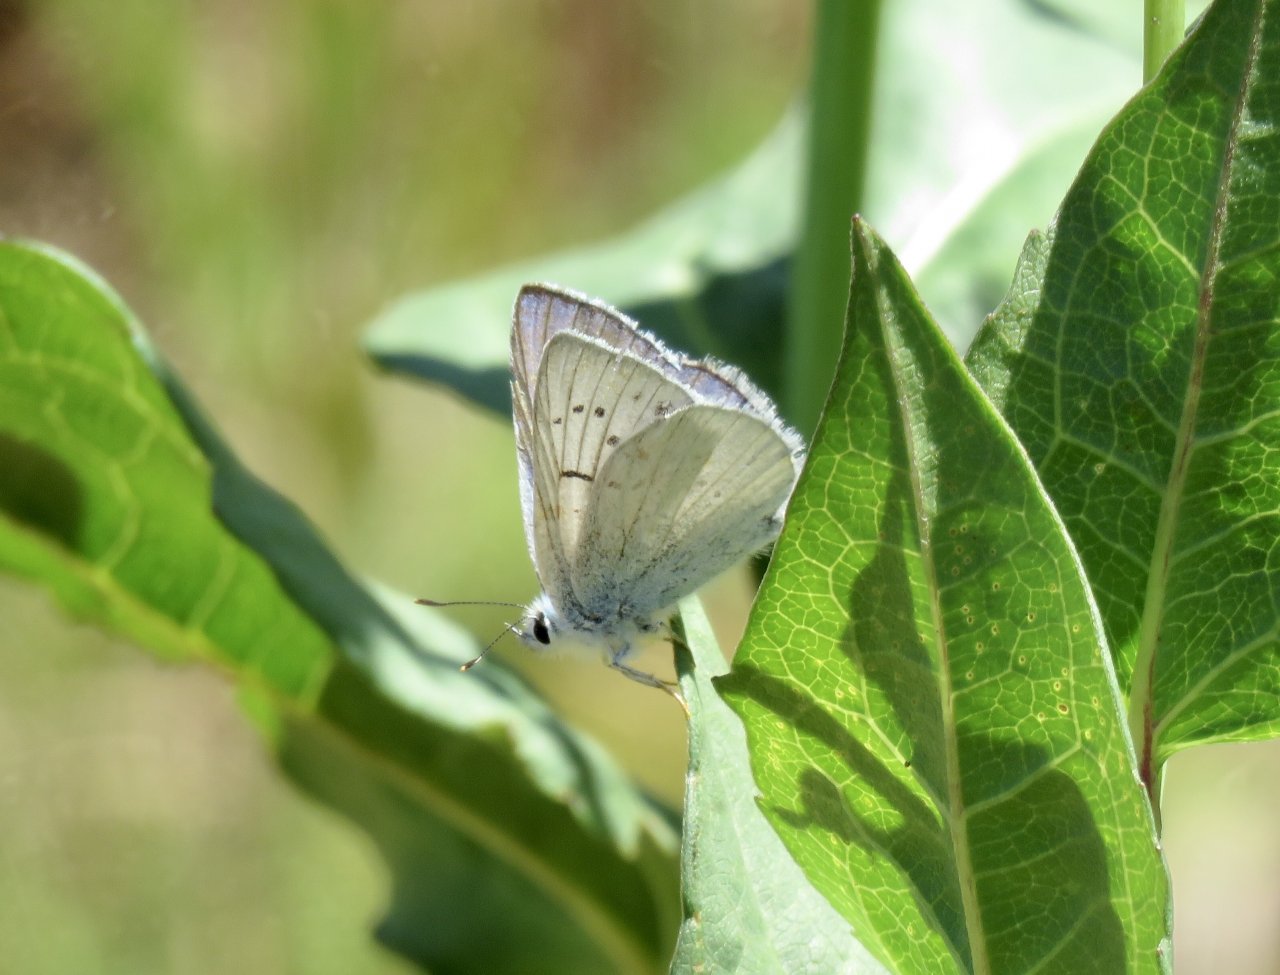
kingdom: Animalia
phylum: Arthropoda
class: Insecta
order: Lepidoptera
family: Lycaenidae
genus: Lycaena
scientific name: Lycaena heteronea
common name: Blue Copper
